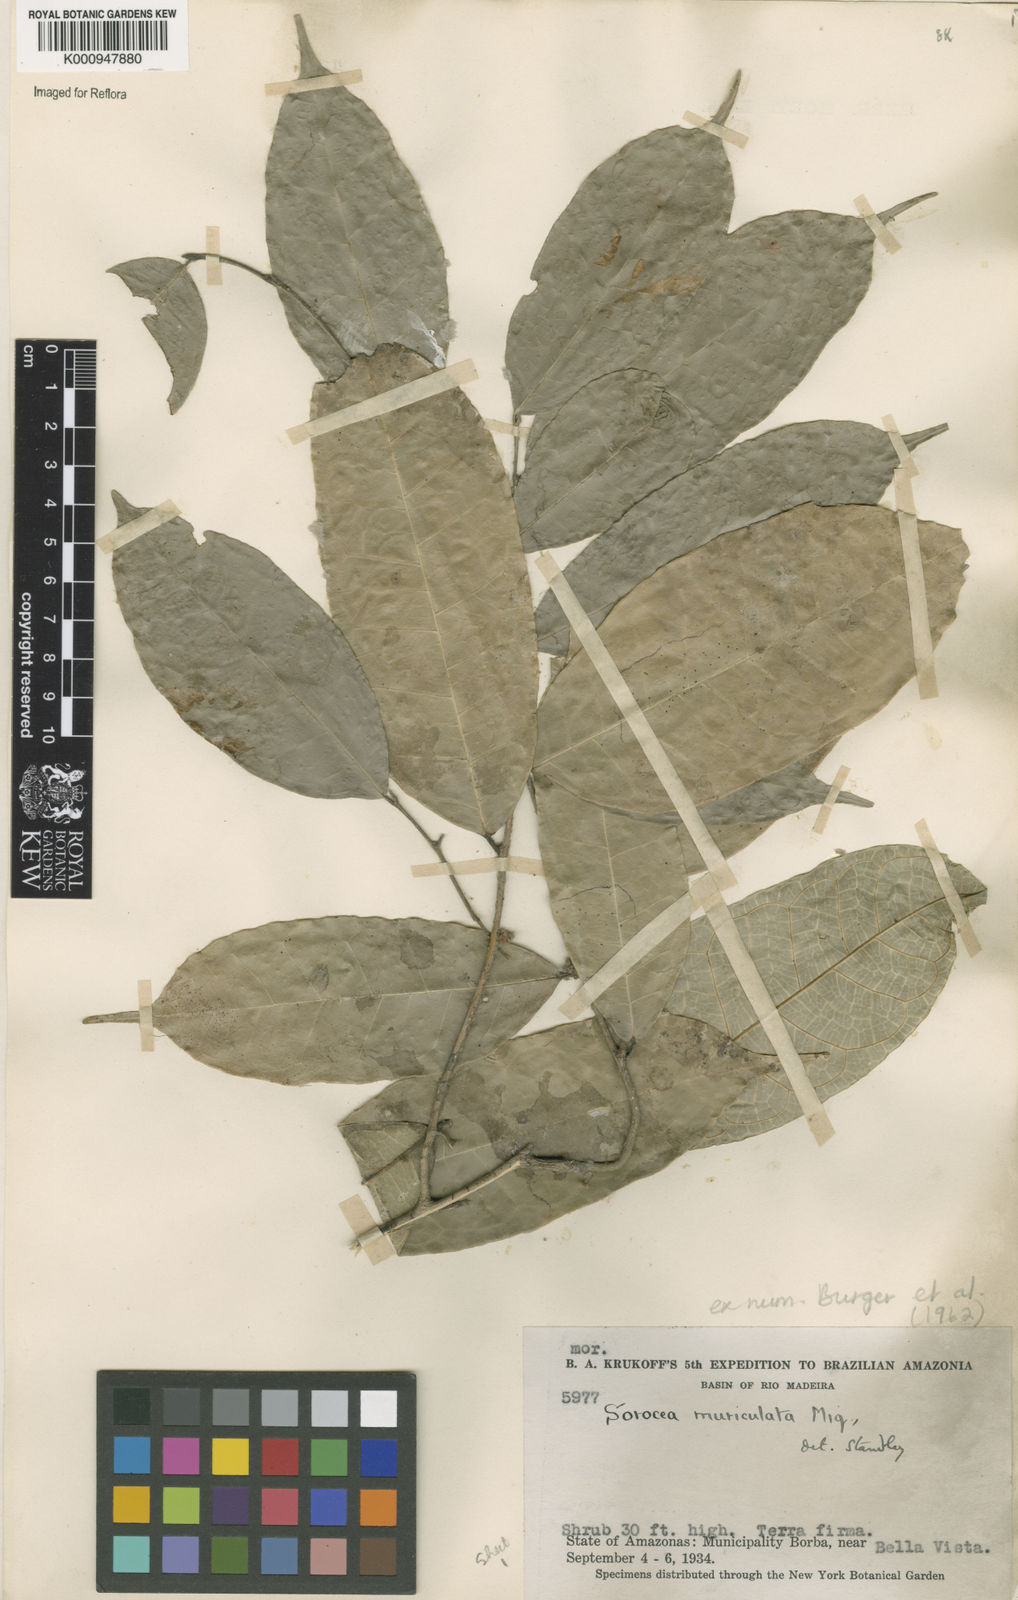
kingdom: Plantae
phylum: Tracheophyta
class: Magnoliopsida
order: Rosales
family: Moraceae
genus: Sorocea
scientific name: Sorocea muriculata
